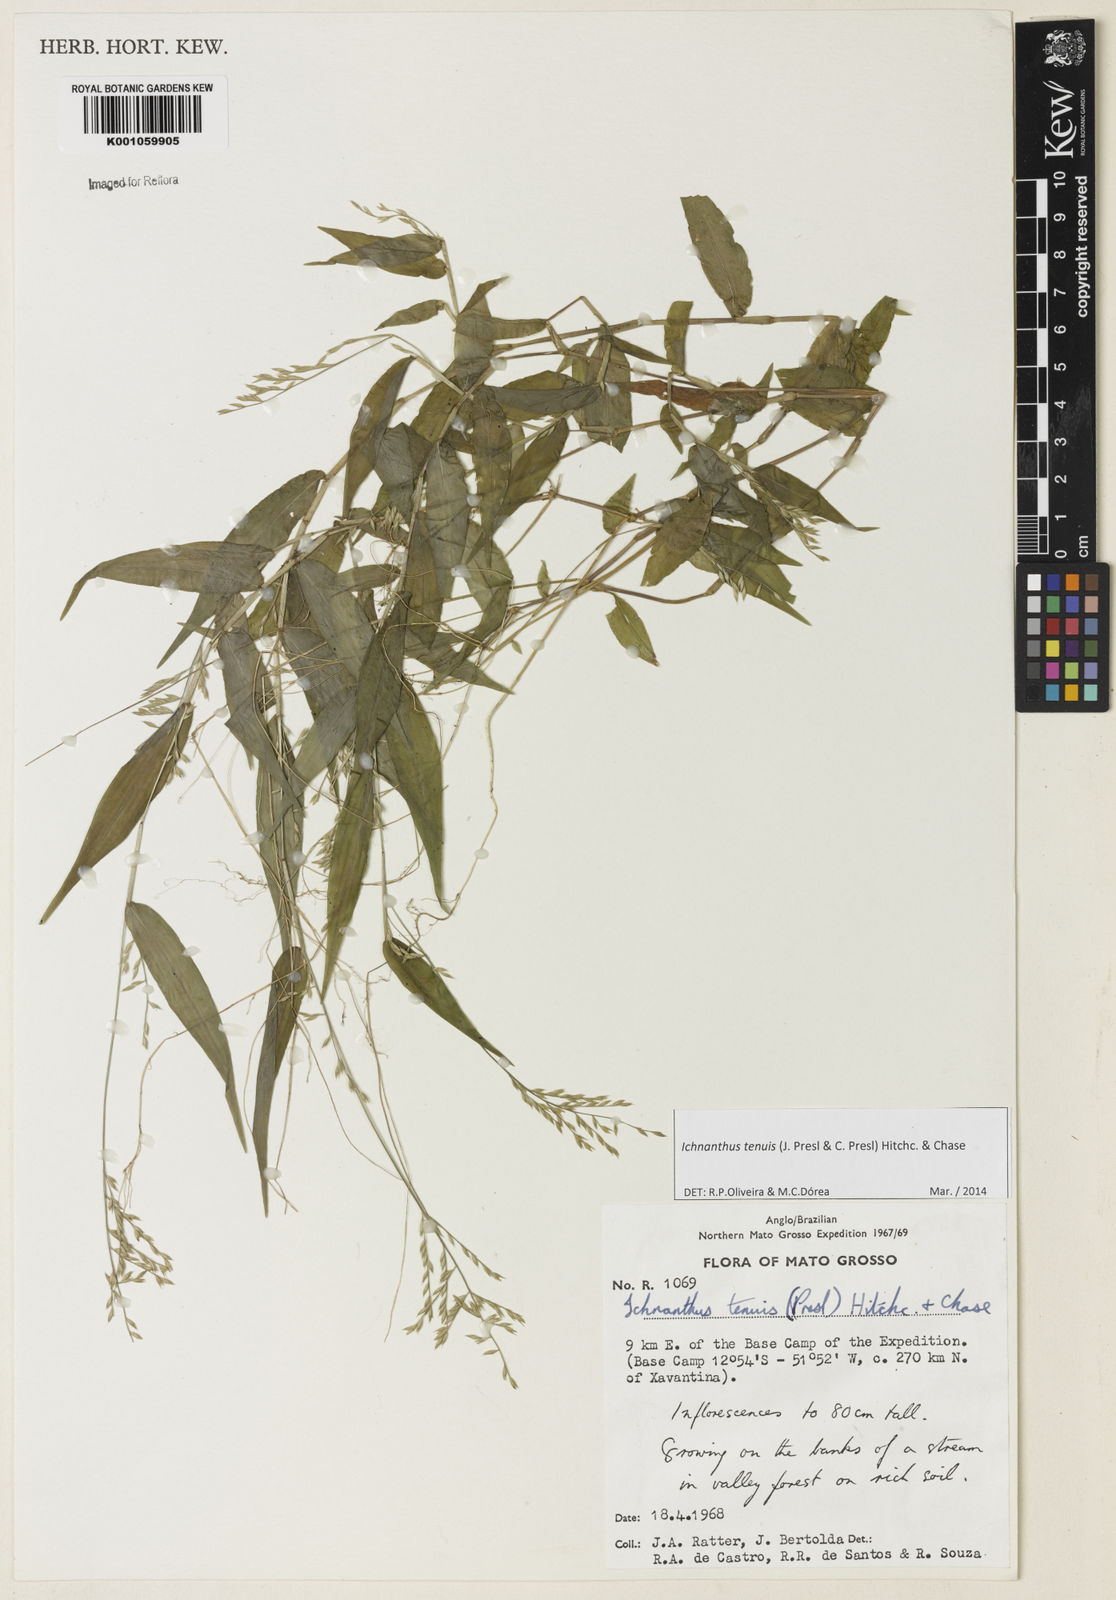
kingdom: Plantae
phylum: Tracheophyta
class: Liliopsida
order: Poales
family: Poaceae
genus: Ichnanthus
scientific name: Ichnanthus tenuis
